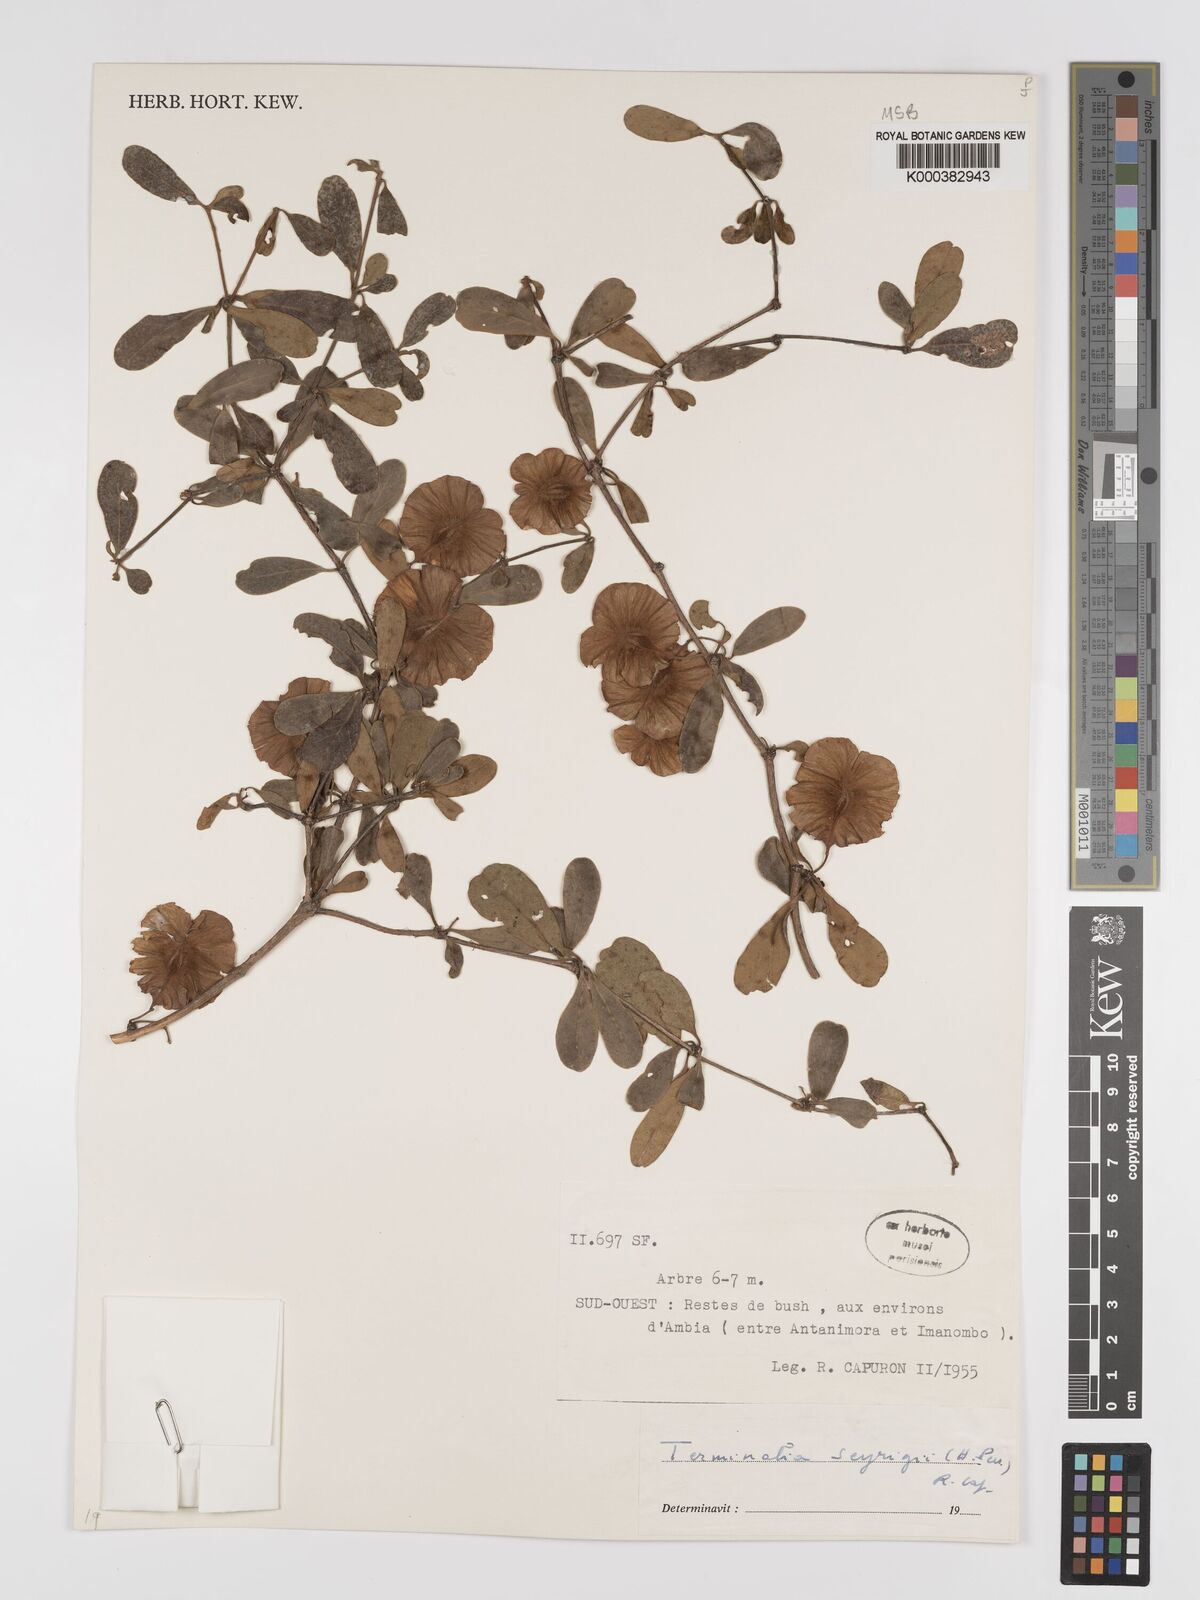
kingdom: Plantae
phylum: Tracheophyta
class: Magnoliopsida
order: Myrtales
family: Combretaceae
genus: Terminalia
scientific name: Terminalia seyrigii
